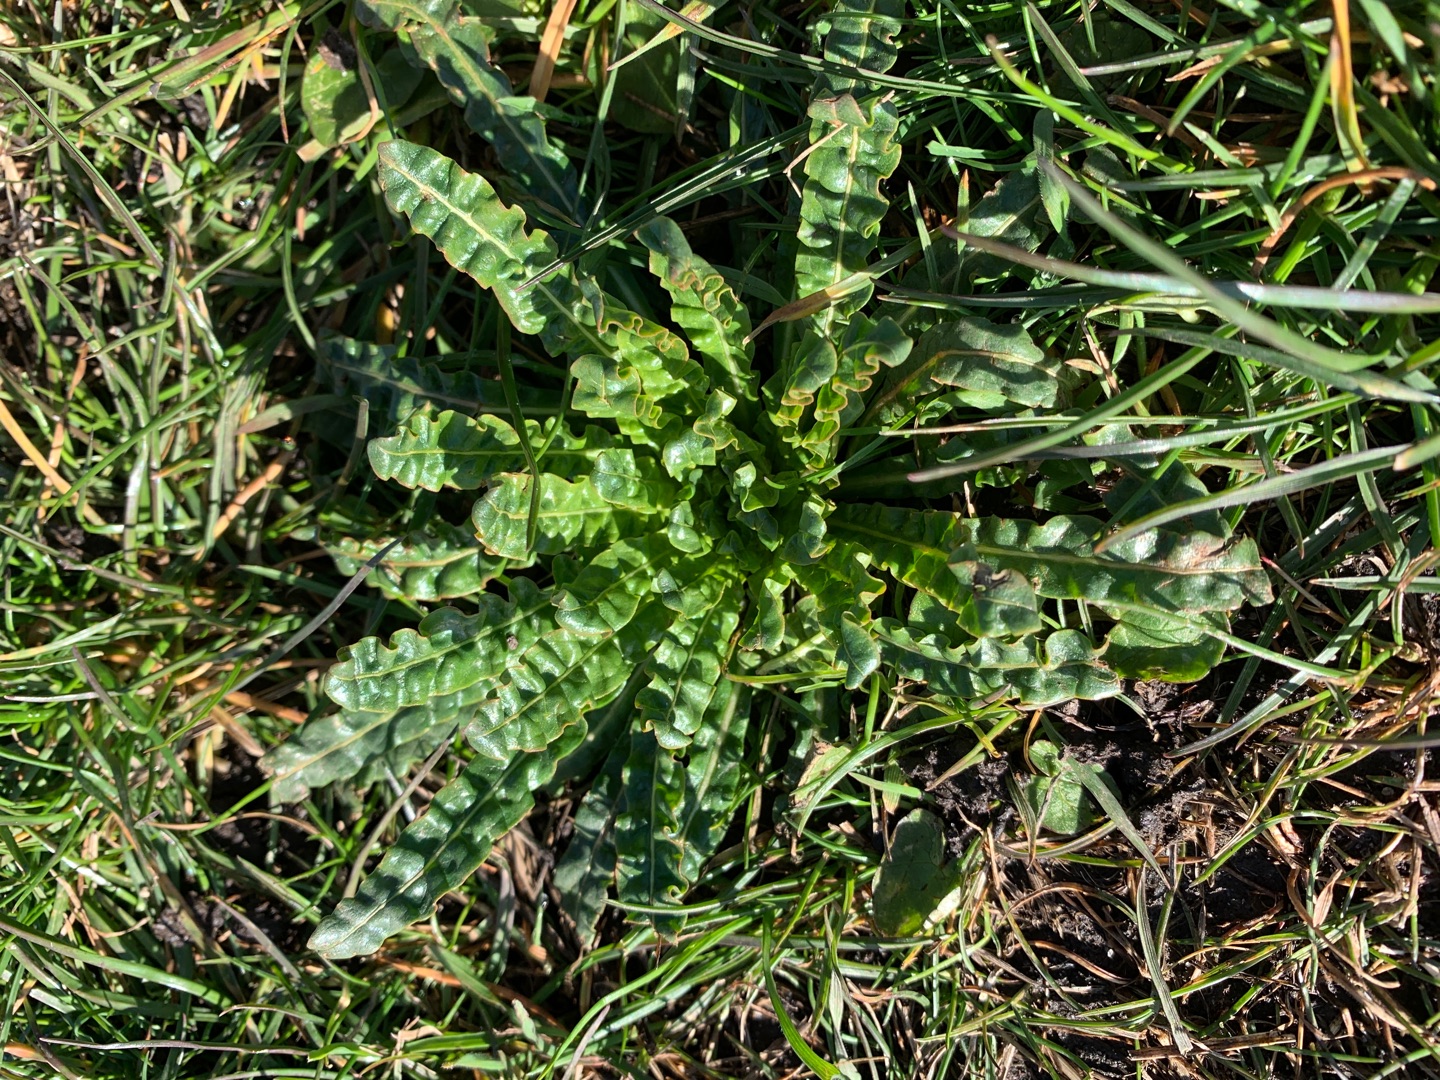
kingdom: Plantae
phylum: Tracheophyta
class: Magnoliopsida
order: Brassicales
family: Resedaceae
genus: Reseda
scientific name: Reseda luteola
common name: Farve-reseda
